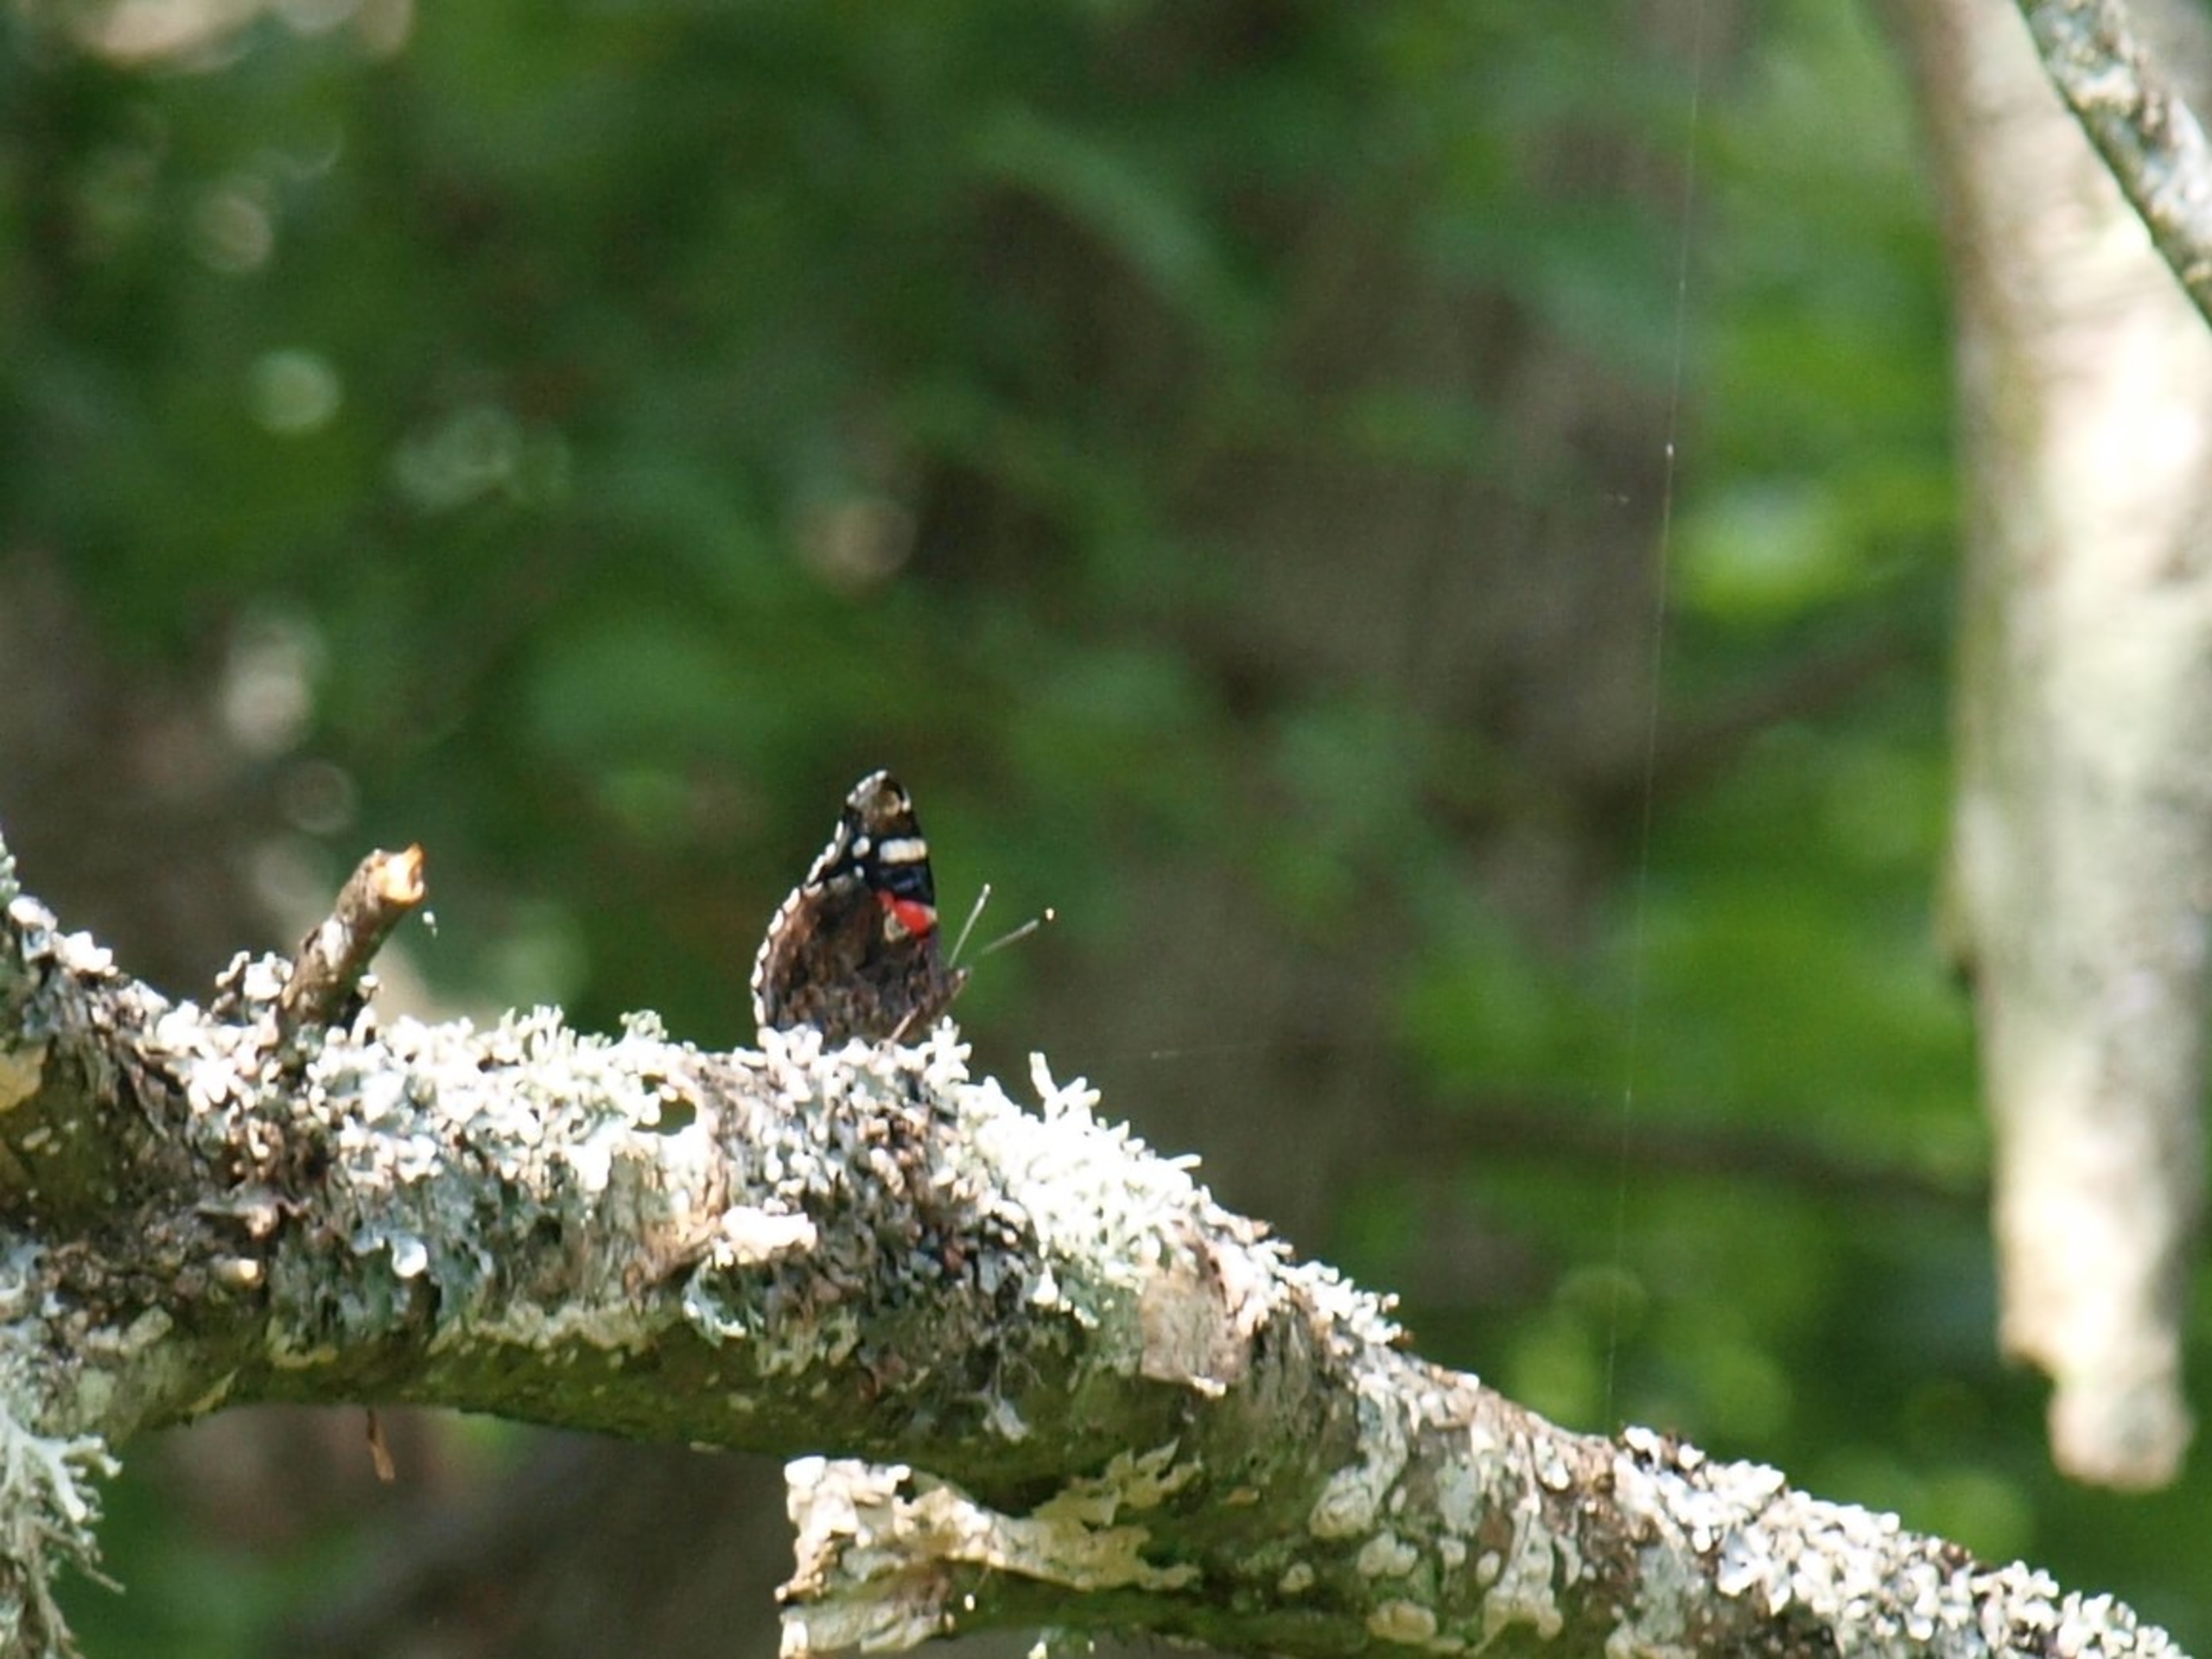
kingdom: Animalia
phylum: Arthropoda
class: Insecta
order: Lepidoptera
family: Nymphalidae
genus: Vanessa
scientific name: Vanessa atalanta
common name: Admiral
